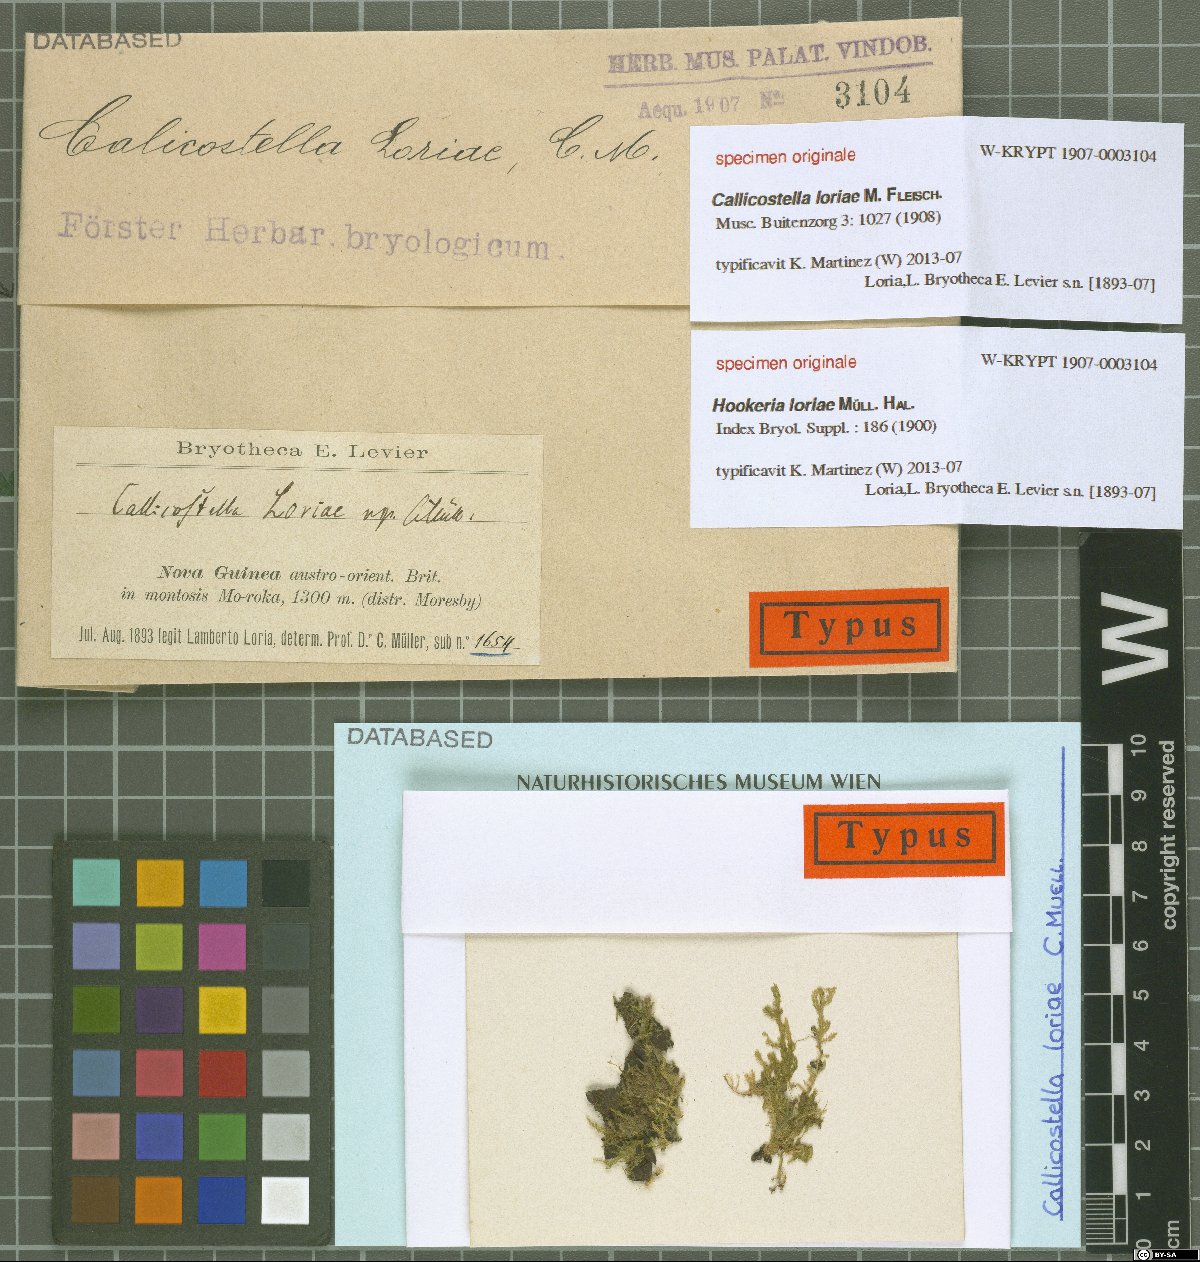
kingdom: Plantae
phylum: Bryophyta
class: Bryopsida
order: Hookeriales
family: Pilotrichaceae
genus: Callicostella
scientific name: Callicostella loriae
